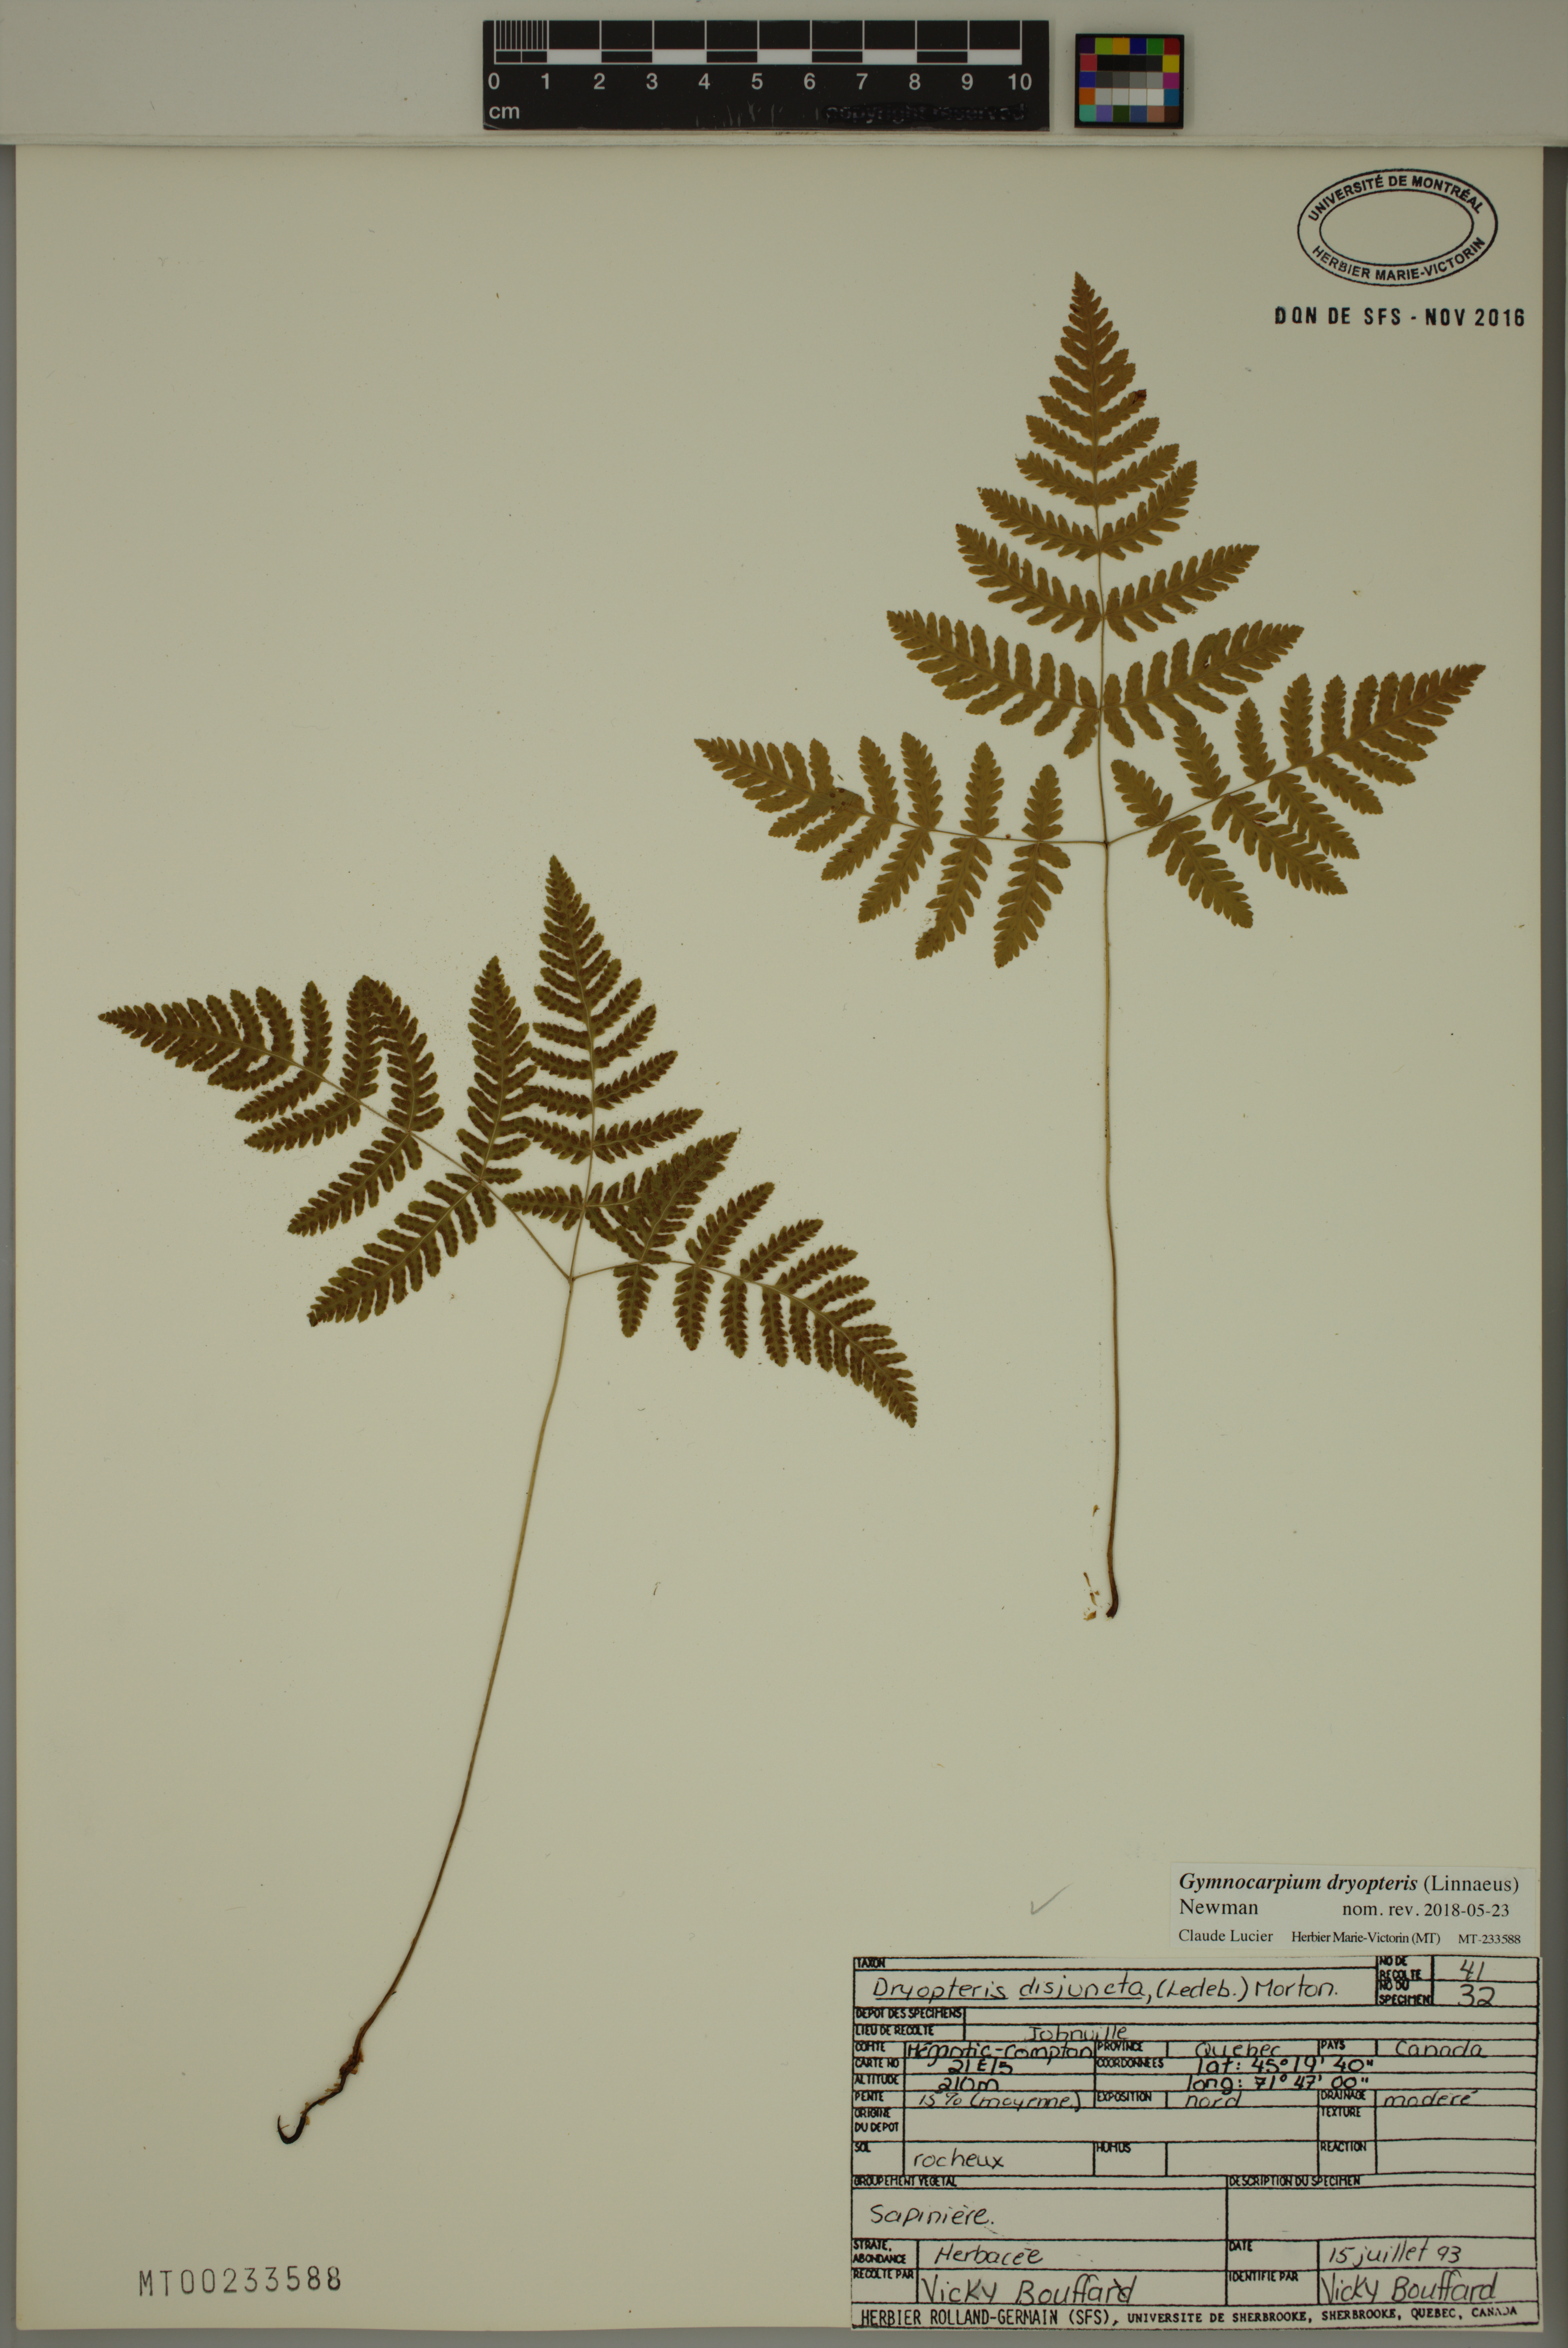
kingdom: Plantae
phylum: Tracheophyta
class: Polypodiopsida
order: Polypodiales
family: Cystopteridaceae
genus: Gymnocarpium
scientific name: Gymnocarpium dryopteris
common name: Oak fern
